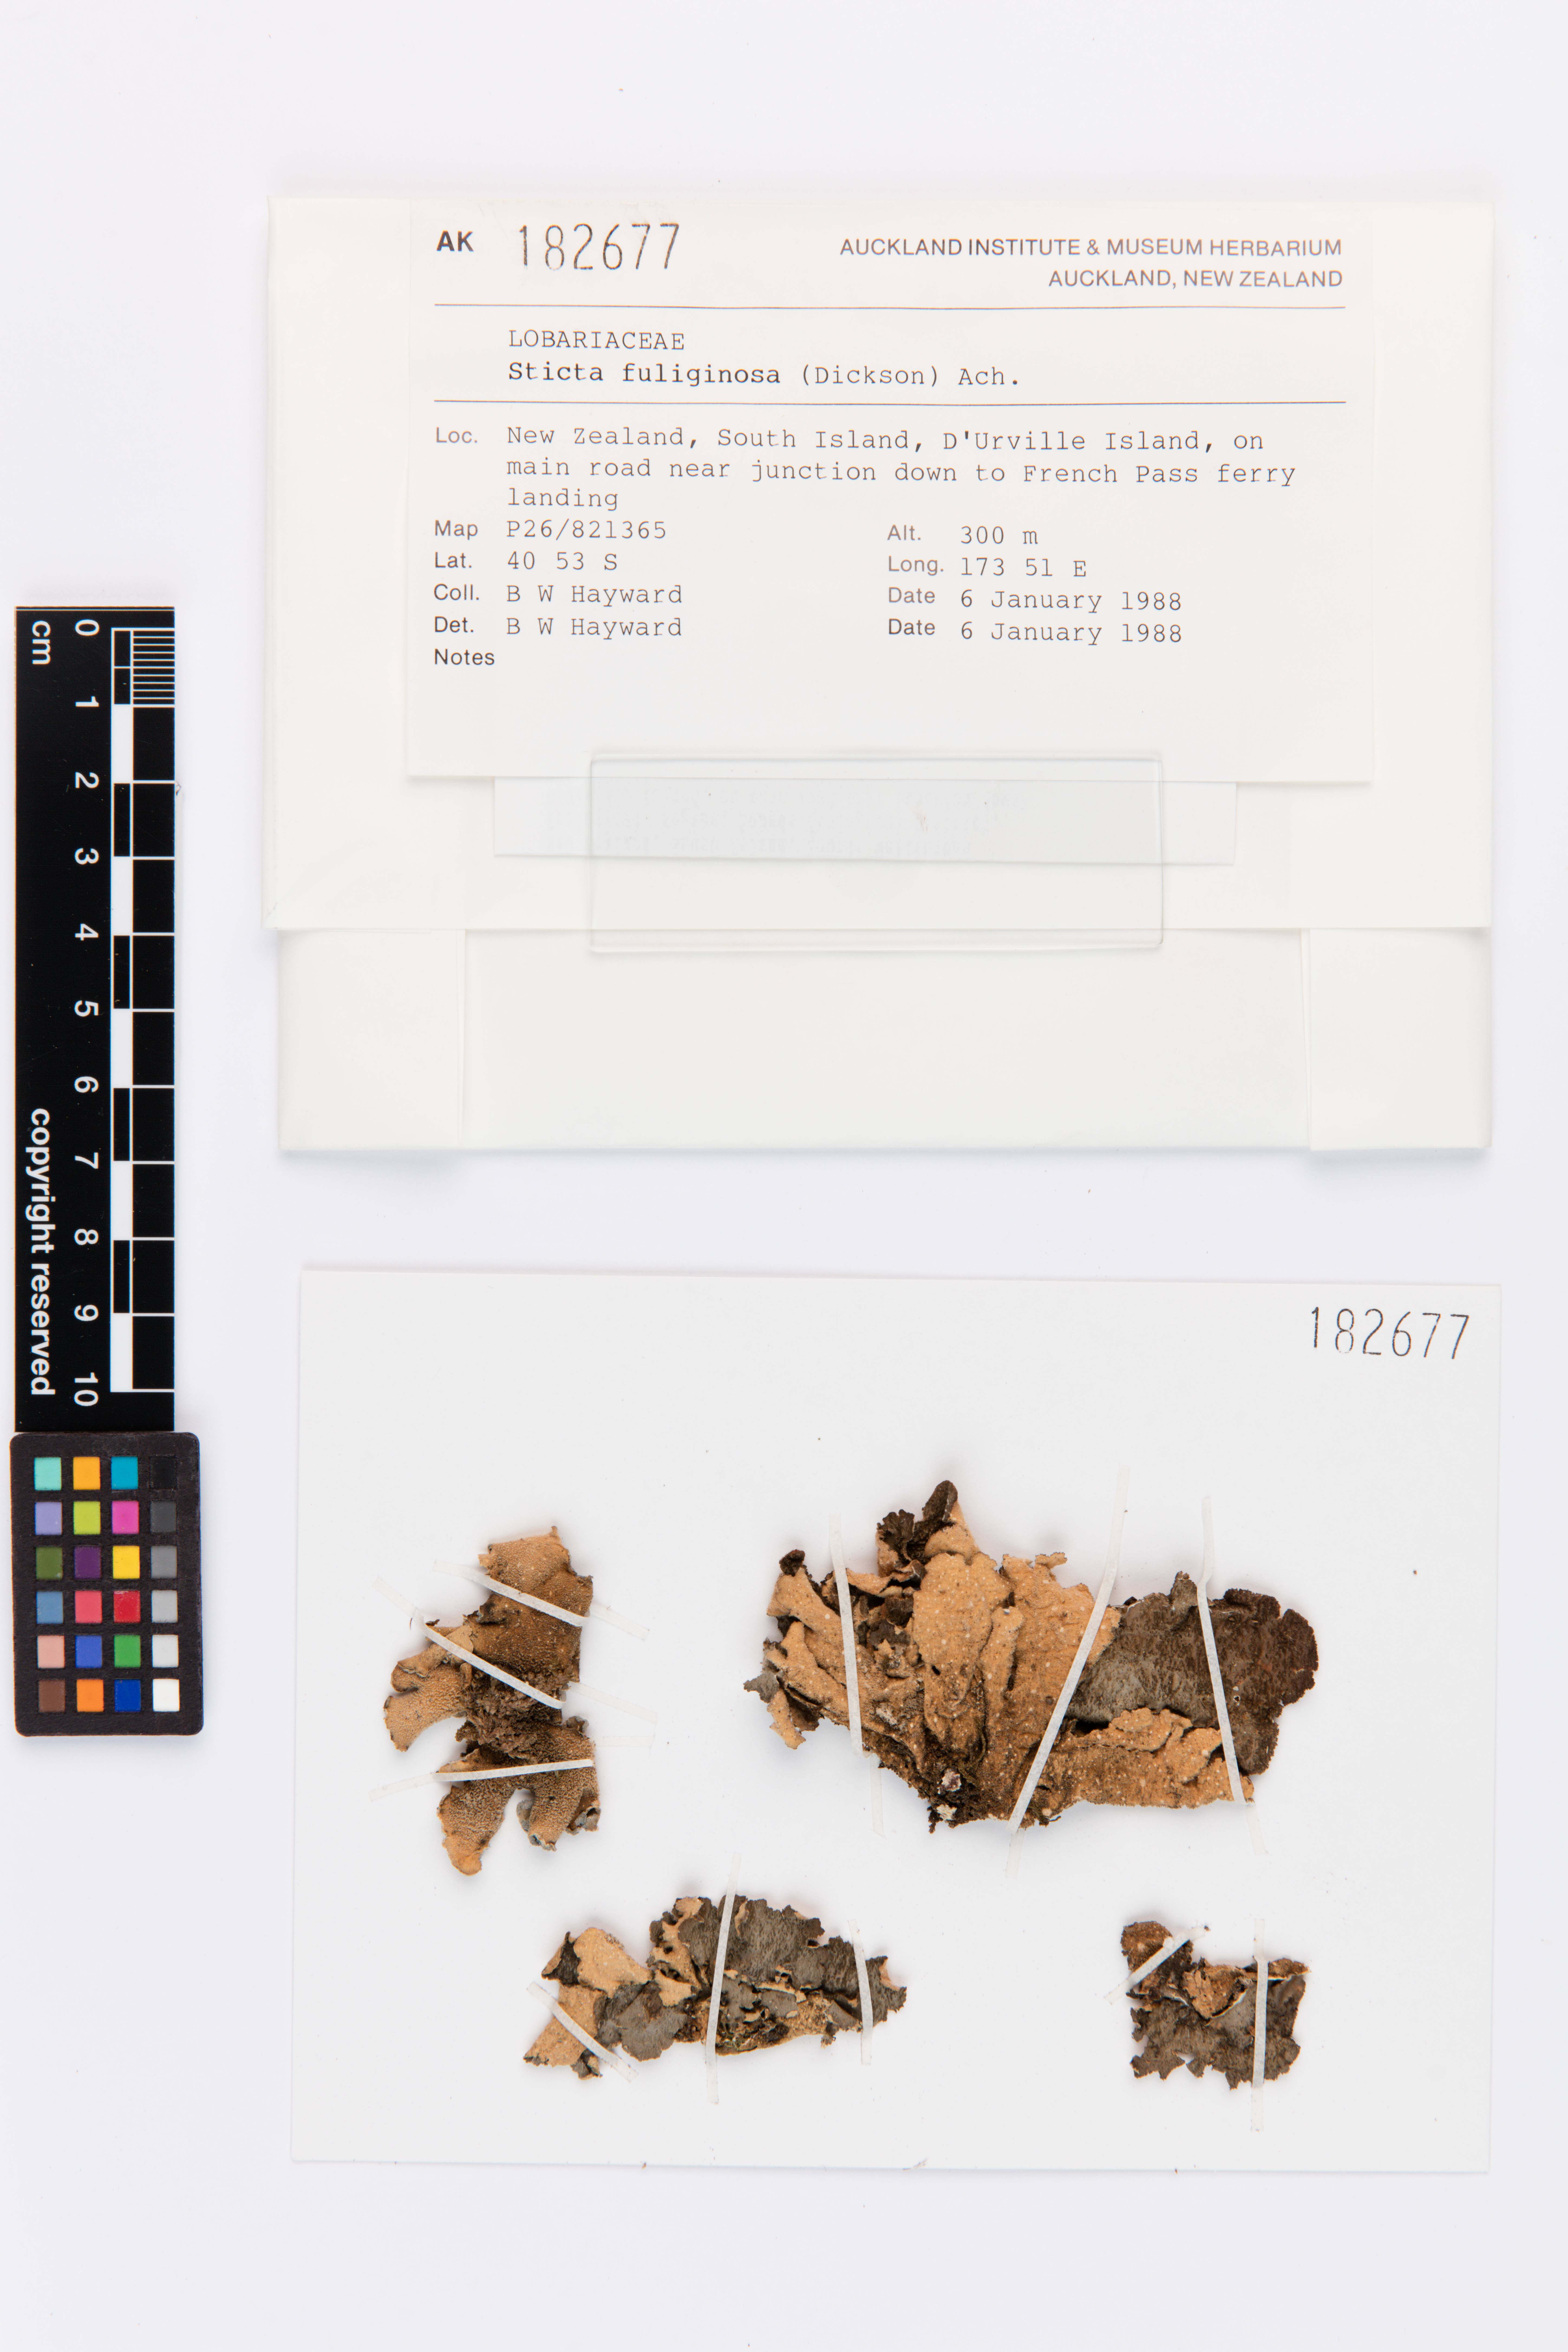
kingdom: Fungi
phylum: Ascomycota
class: Lecanoromycetes
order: Peltigerales
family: Lobariaceae
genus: Sticta
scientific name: Sticta fuliginosa
